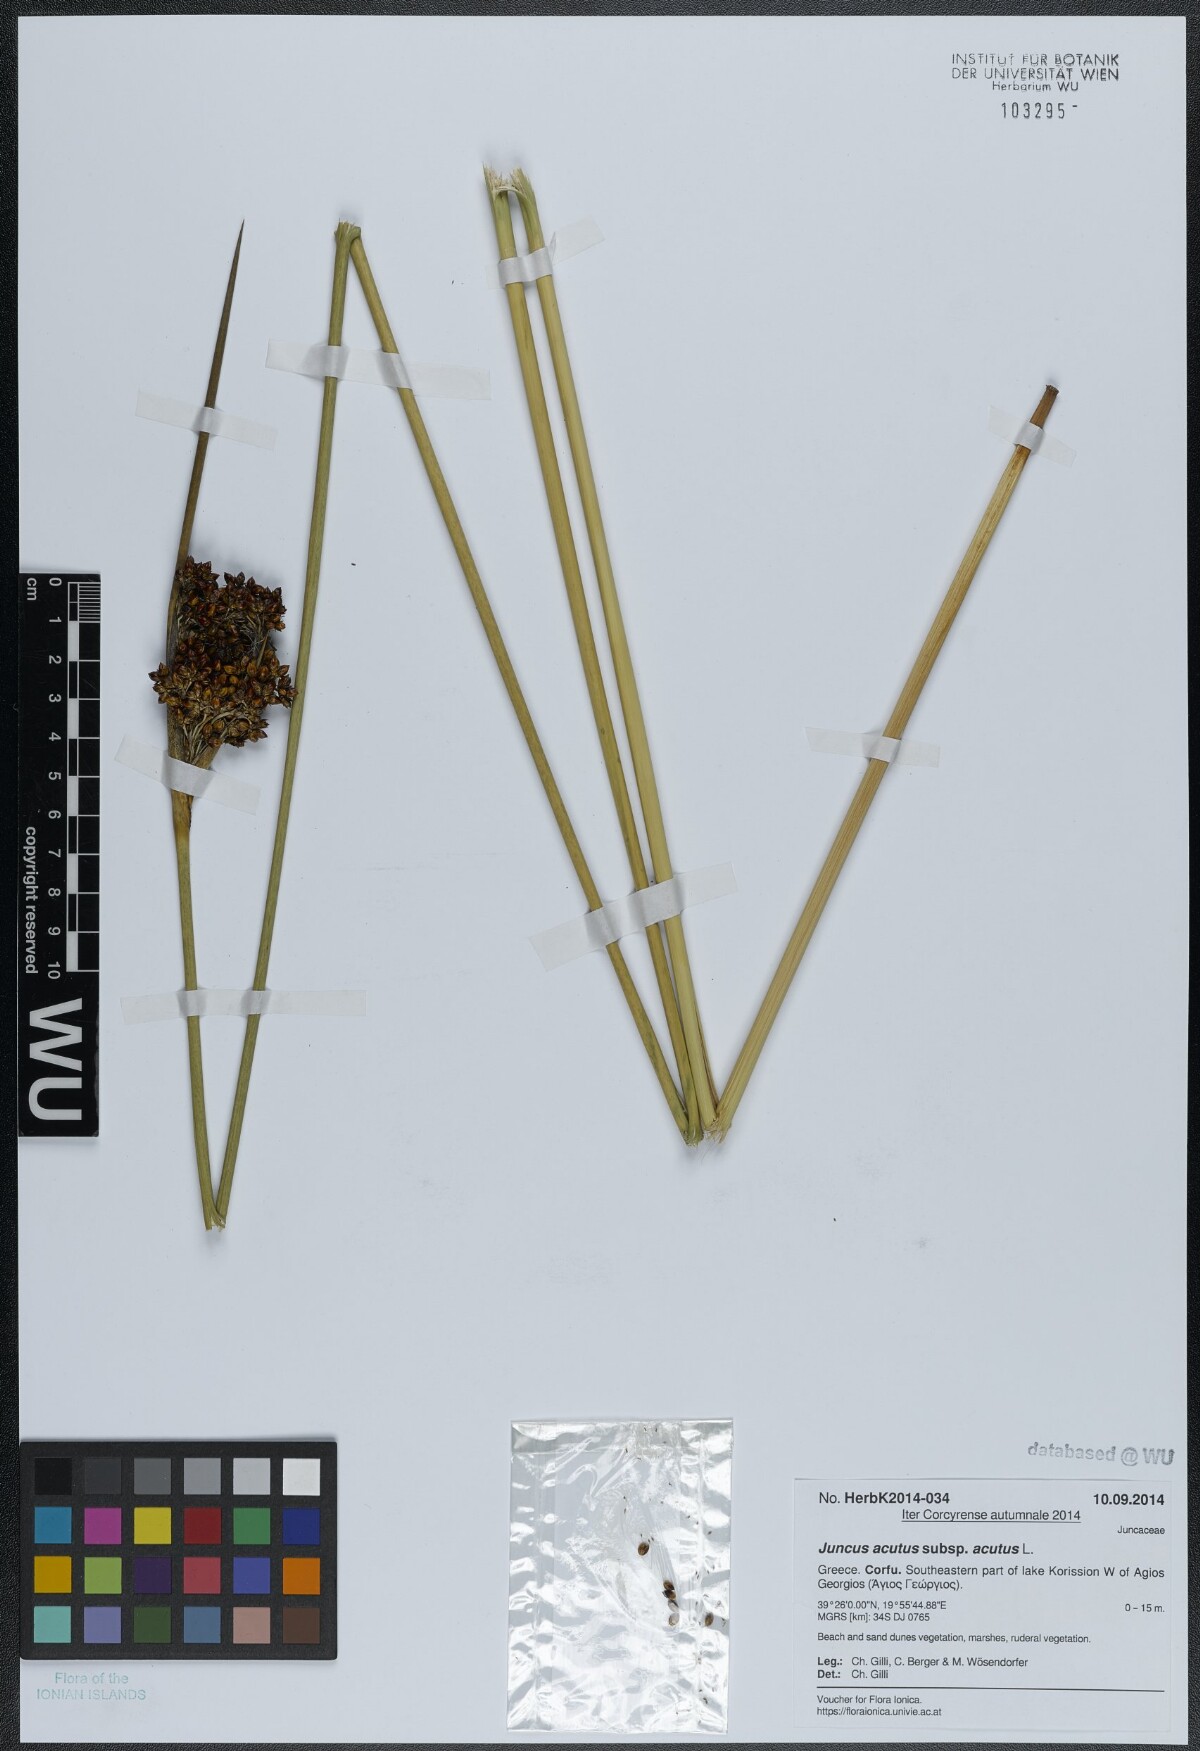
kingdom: Plantae
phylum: Tracheophyta
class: Liliopsida
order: Poales
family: Juncaceae
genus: Juncus
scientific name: Juncus acutus
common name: Sharp rush
